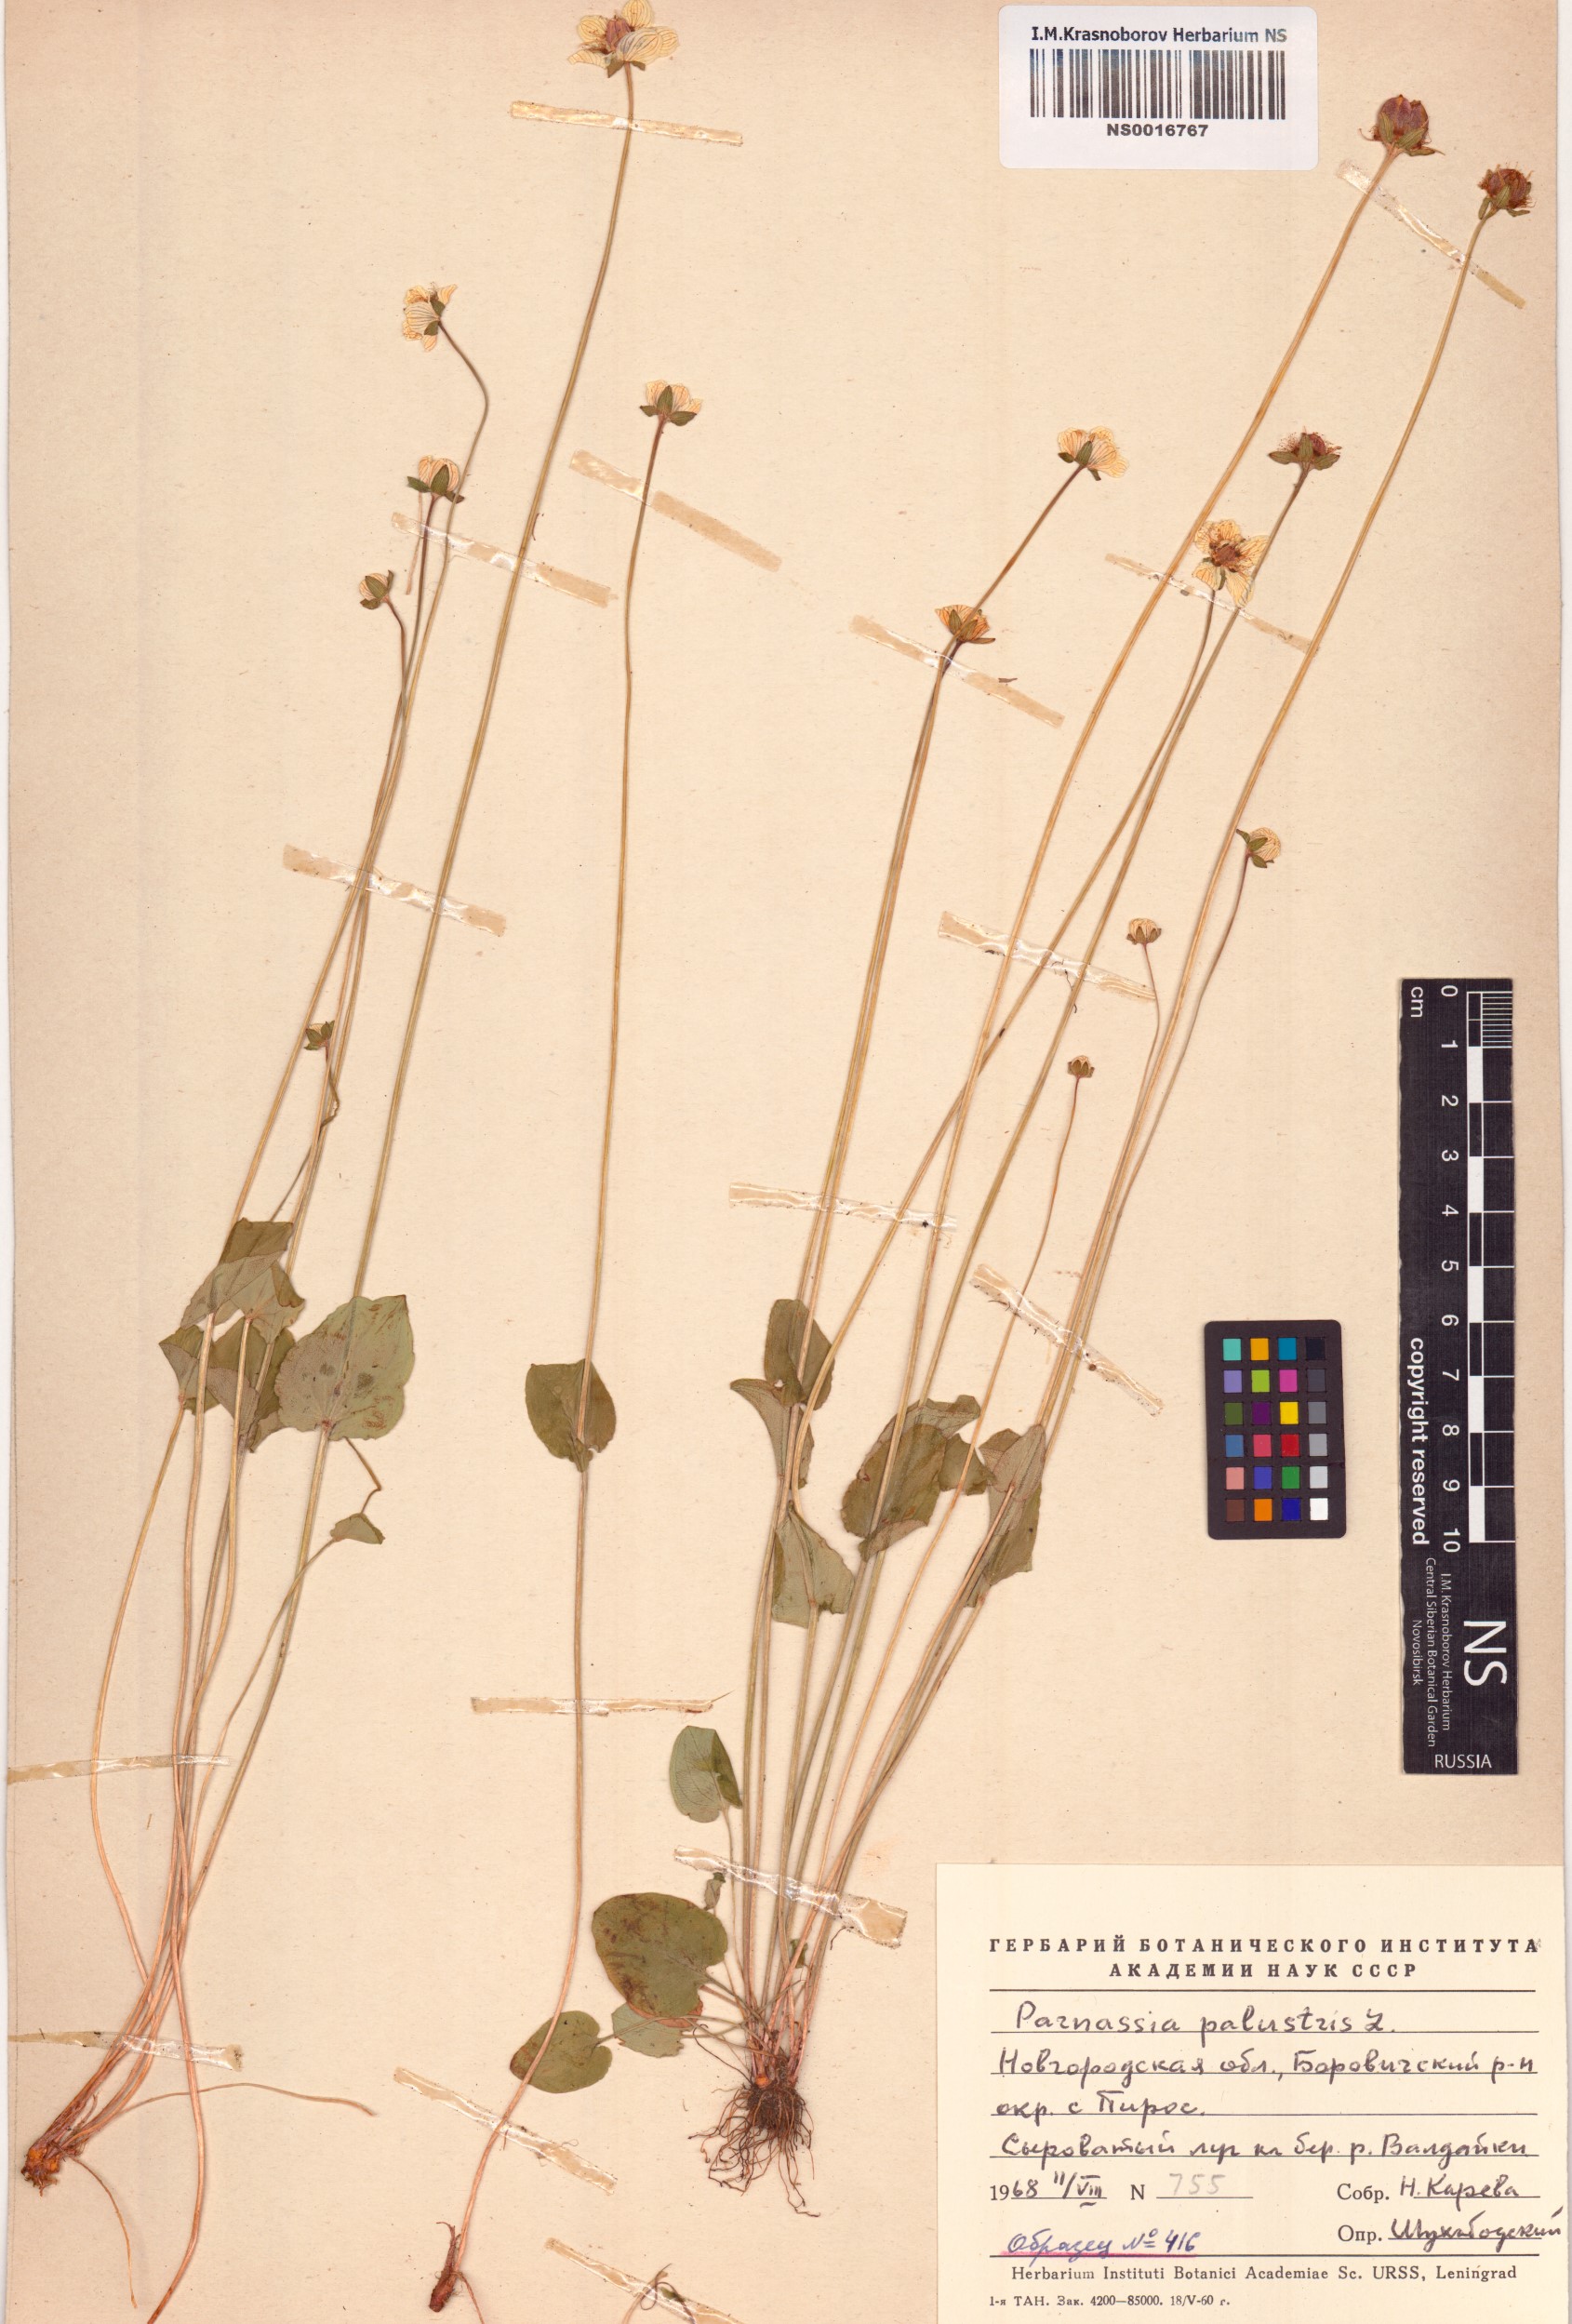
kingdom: Plantae
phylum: Tracheophyta
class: Magnoliopsida
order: Celastrales
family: Parnassiaceae
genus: Parnassia
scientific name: Parnassia palustris
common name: Grass-of-parnassus
